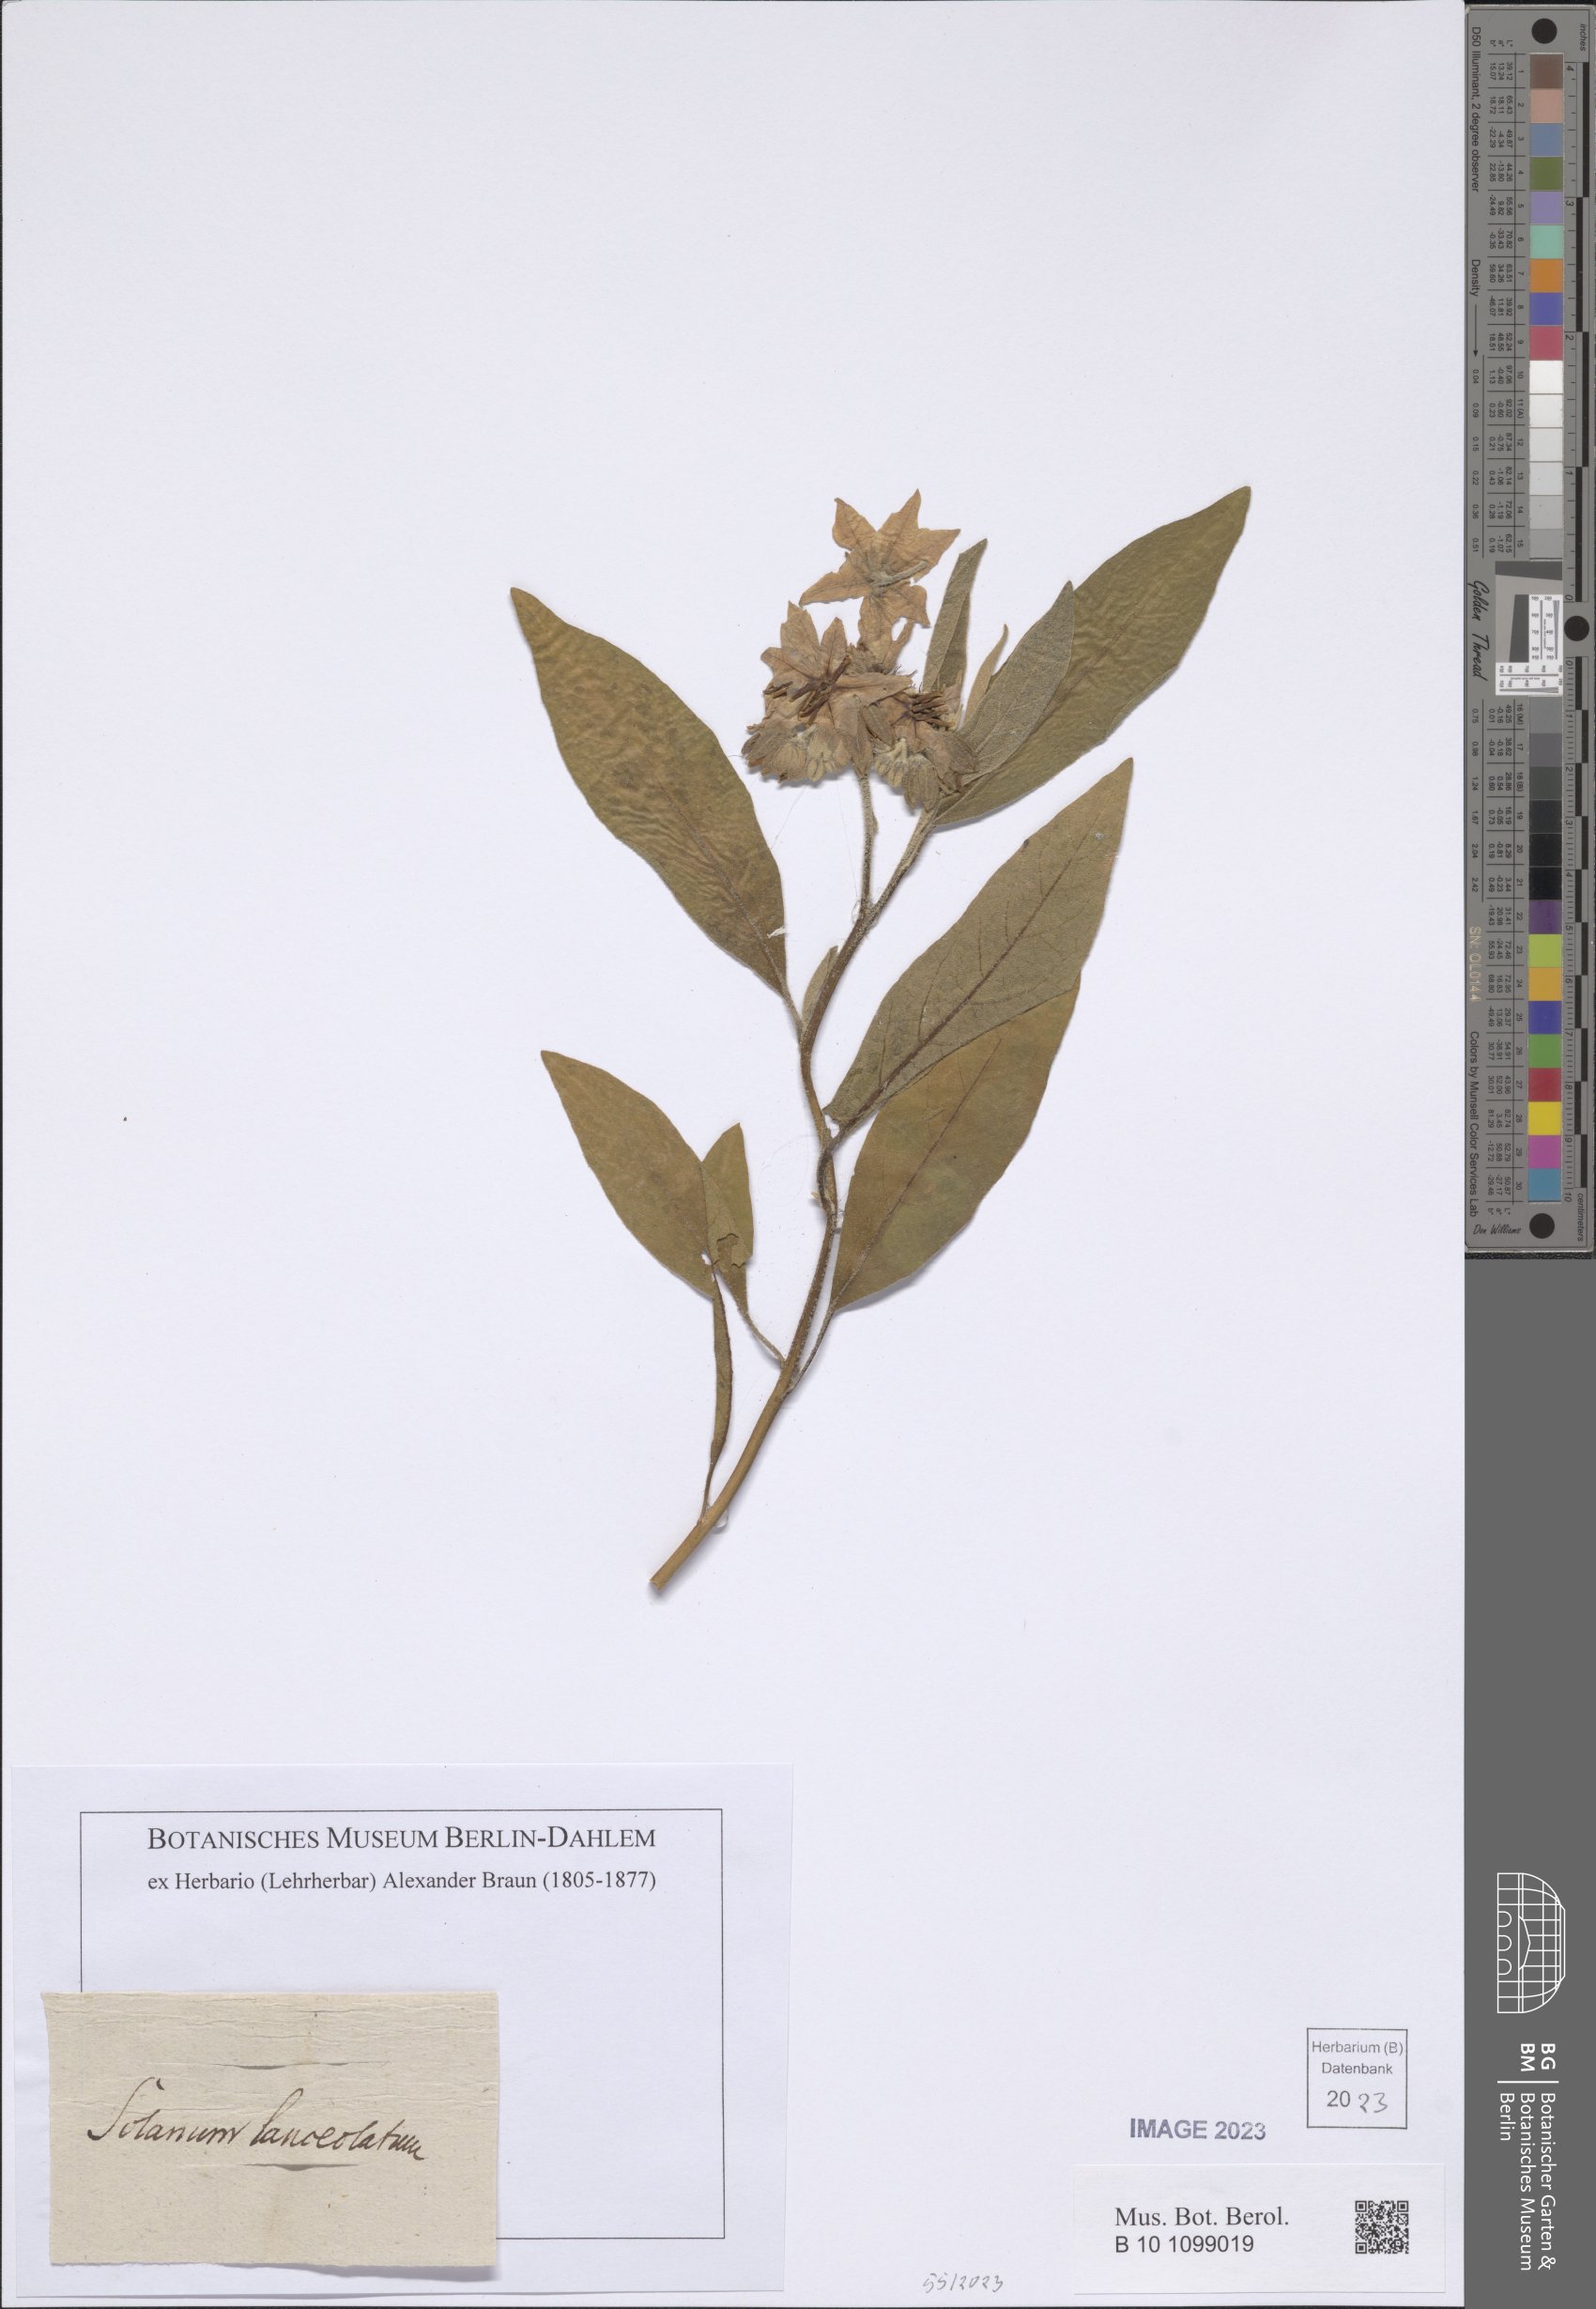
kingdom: Plantae
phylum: Tracheophyta
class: Magnoliopsida
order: Solanales
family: Solanaceae
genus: Solanum
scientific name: Solanum lanceolatum
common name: Orangeberry nightshade
